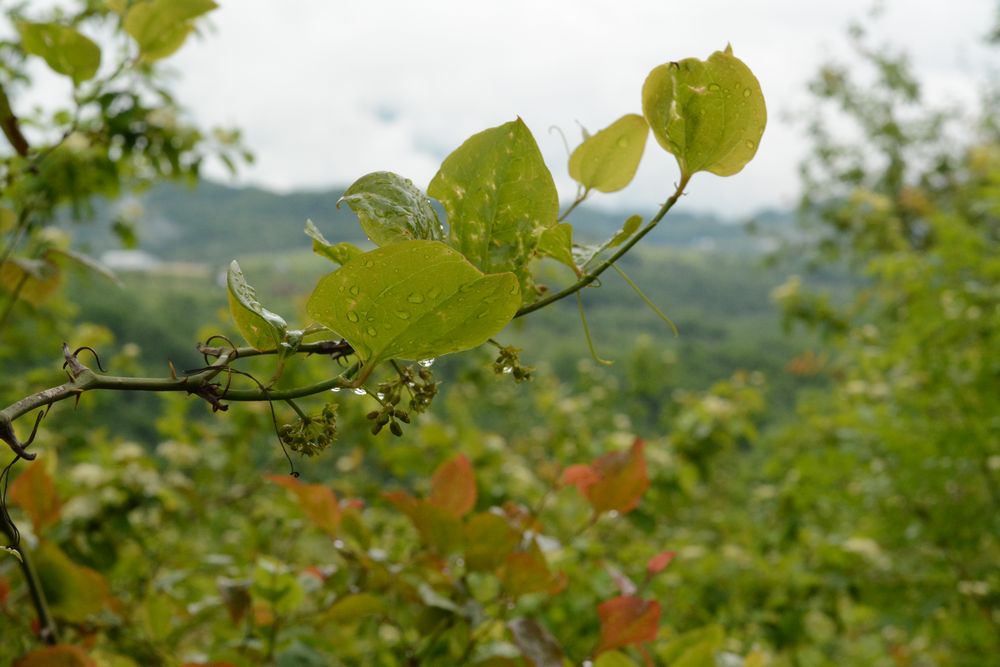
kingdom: Plantae
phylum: Tracheophyta
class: Liliopsida
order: Liliales
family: Smilacaceae
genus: Smilax
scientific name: Smilax excelsa
